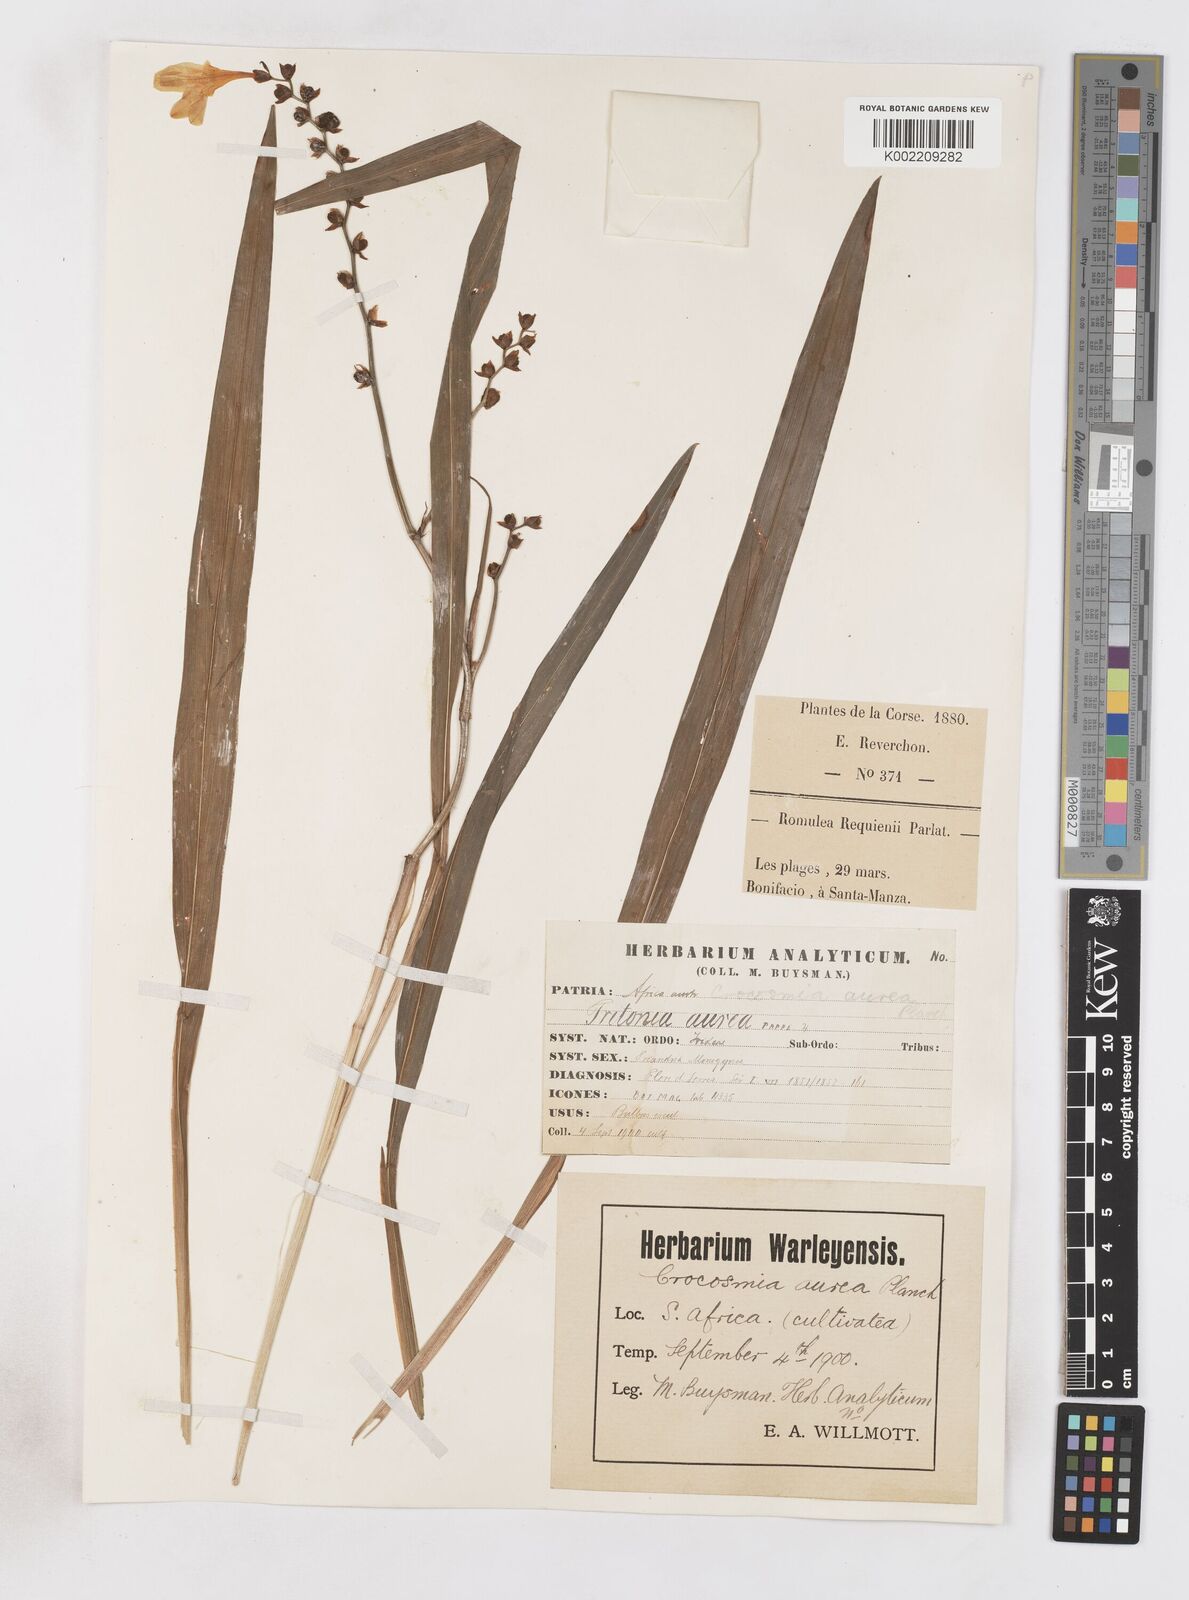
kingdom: Plantae
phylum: Tracheophyta
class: Liliopsida
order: Asparagales
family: Iridaceae
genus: Crocosmia
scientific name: Crocosmia aurea
